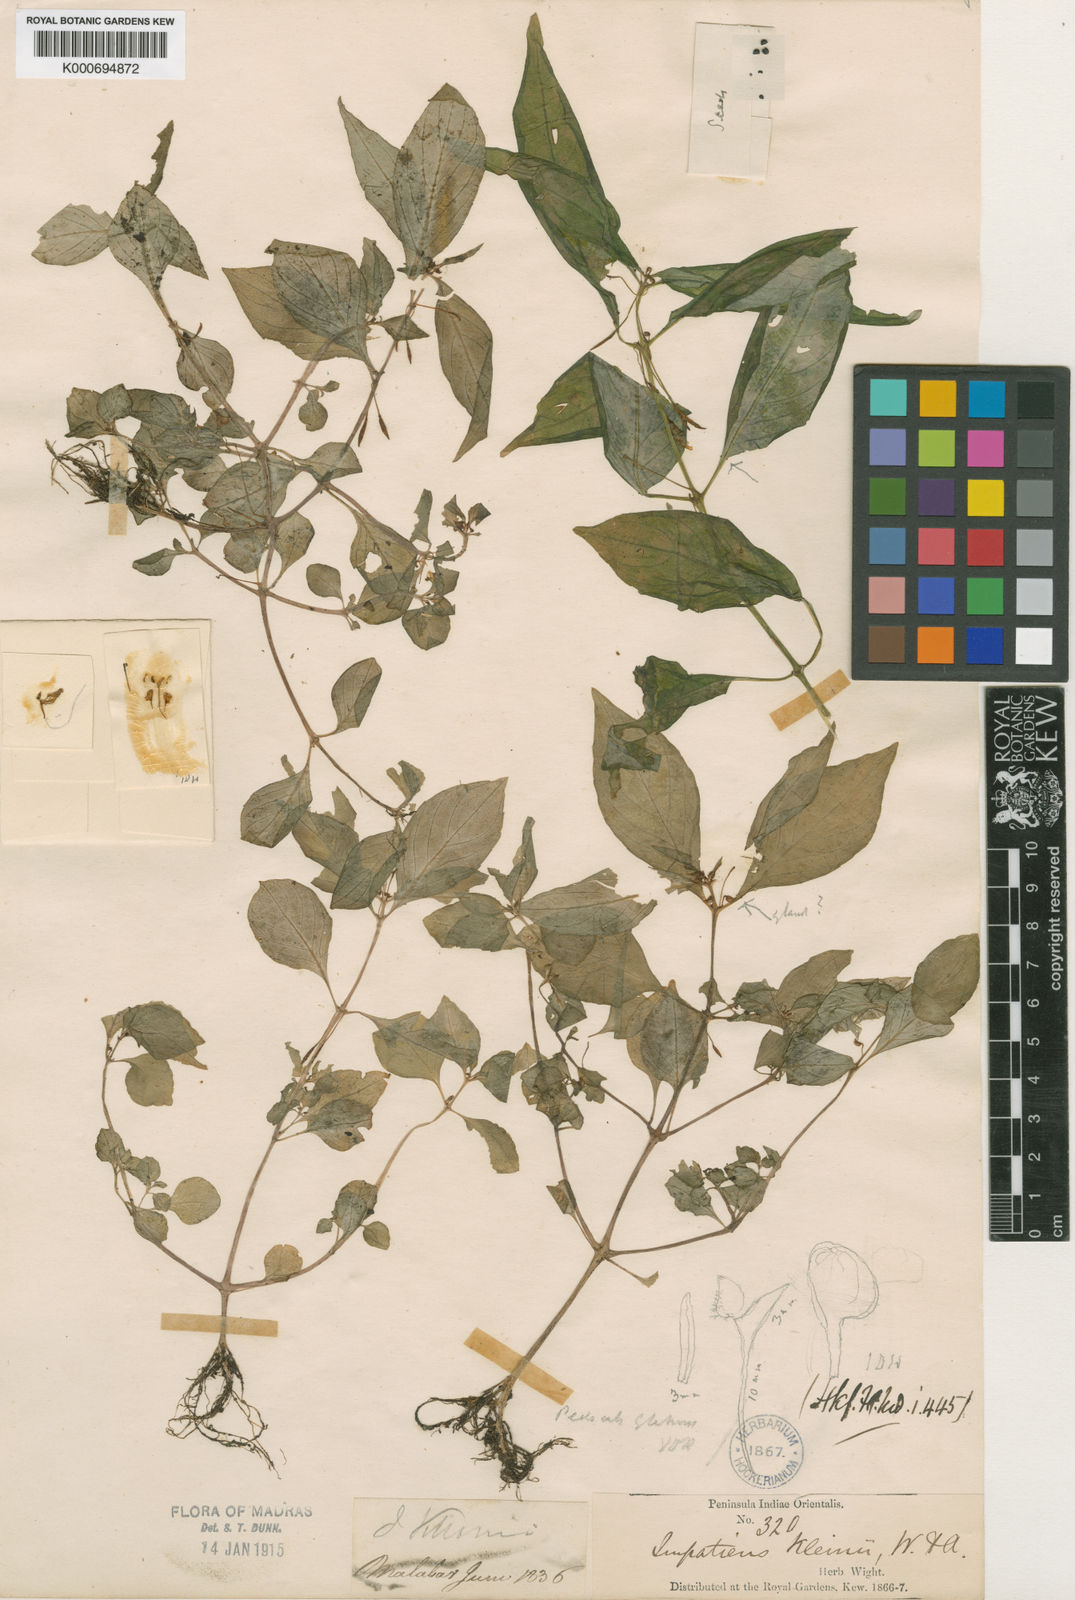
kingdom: Plantae
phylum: Tracheophyta
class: Magnoliopsida
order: Ericales
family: Balsaminaceae
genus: Impatiens
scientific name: Impatiens minor
